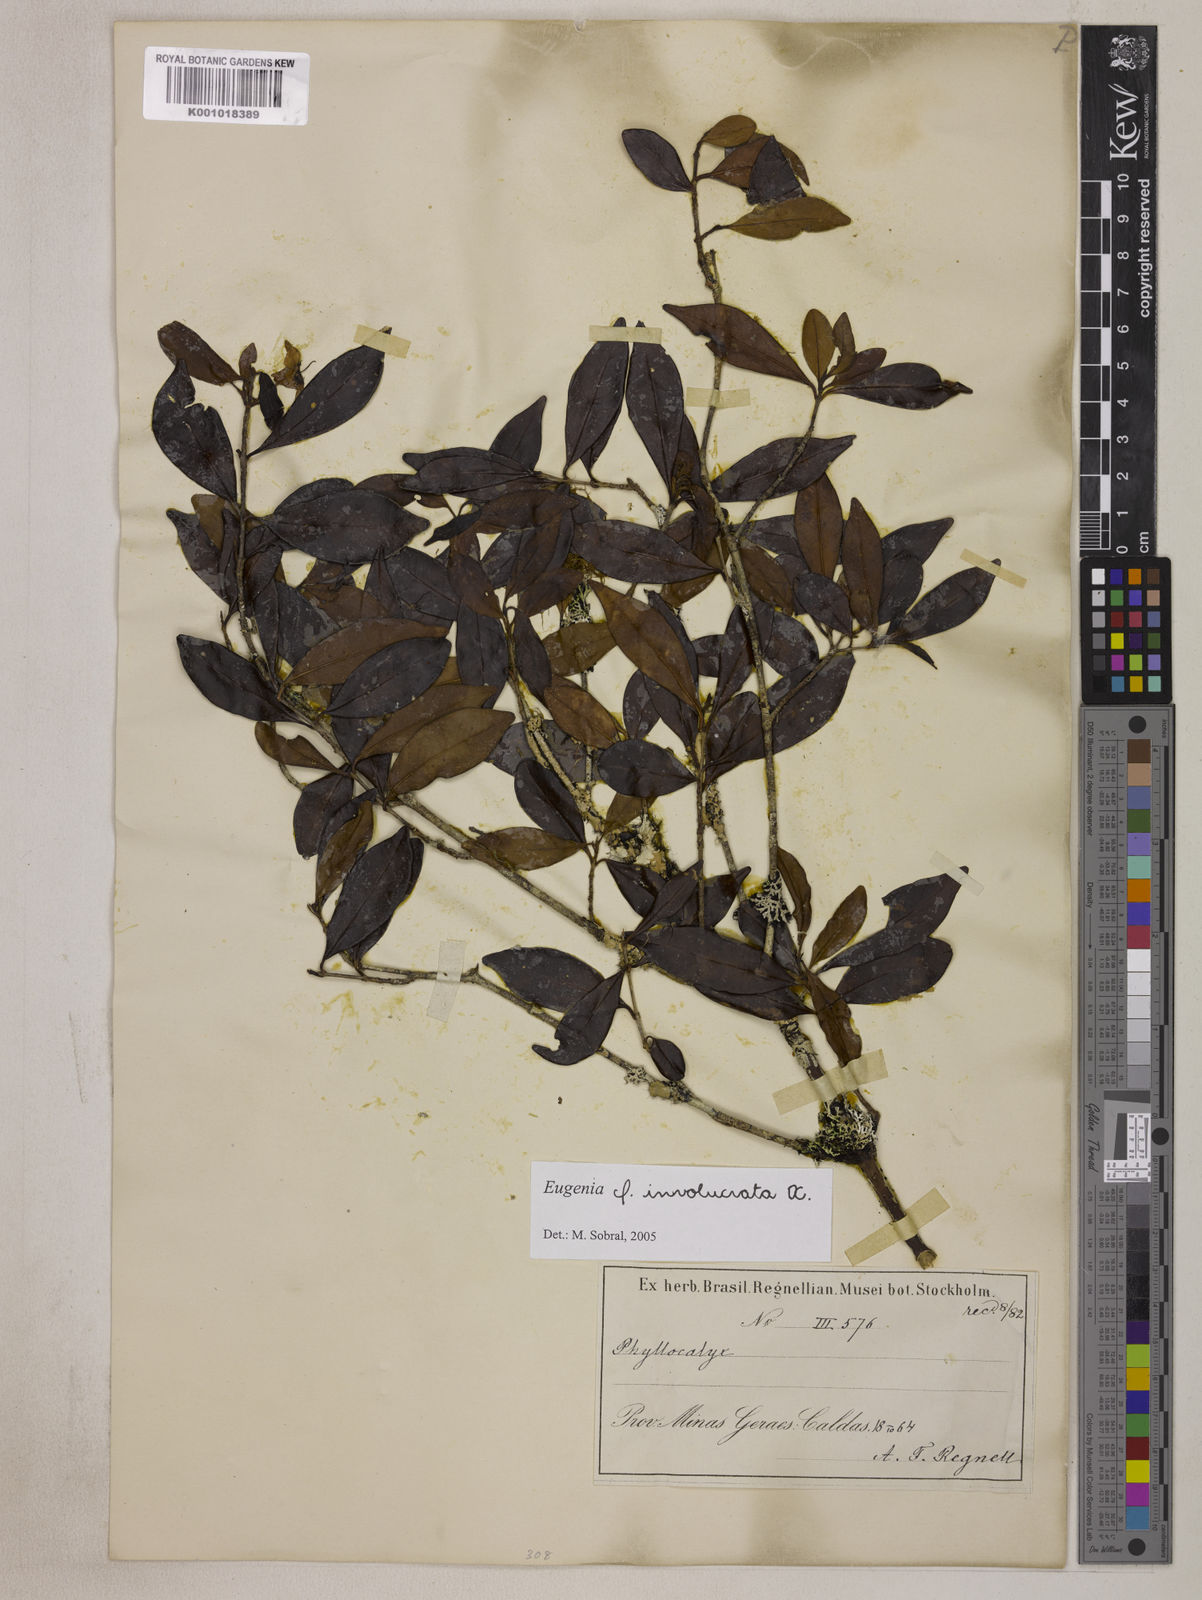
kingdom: Plantae
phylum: Tracheophyta
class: Magnoliopsida
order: Myrtales
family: Myrtaceae
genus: Eugenia
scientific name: Eugenia involucrata
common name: Cherry-of-the-rio grande
